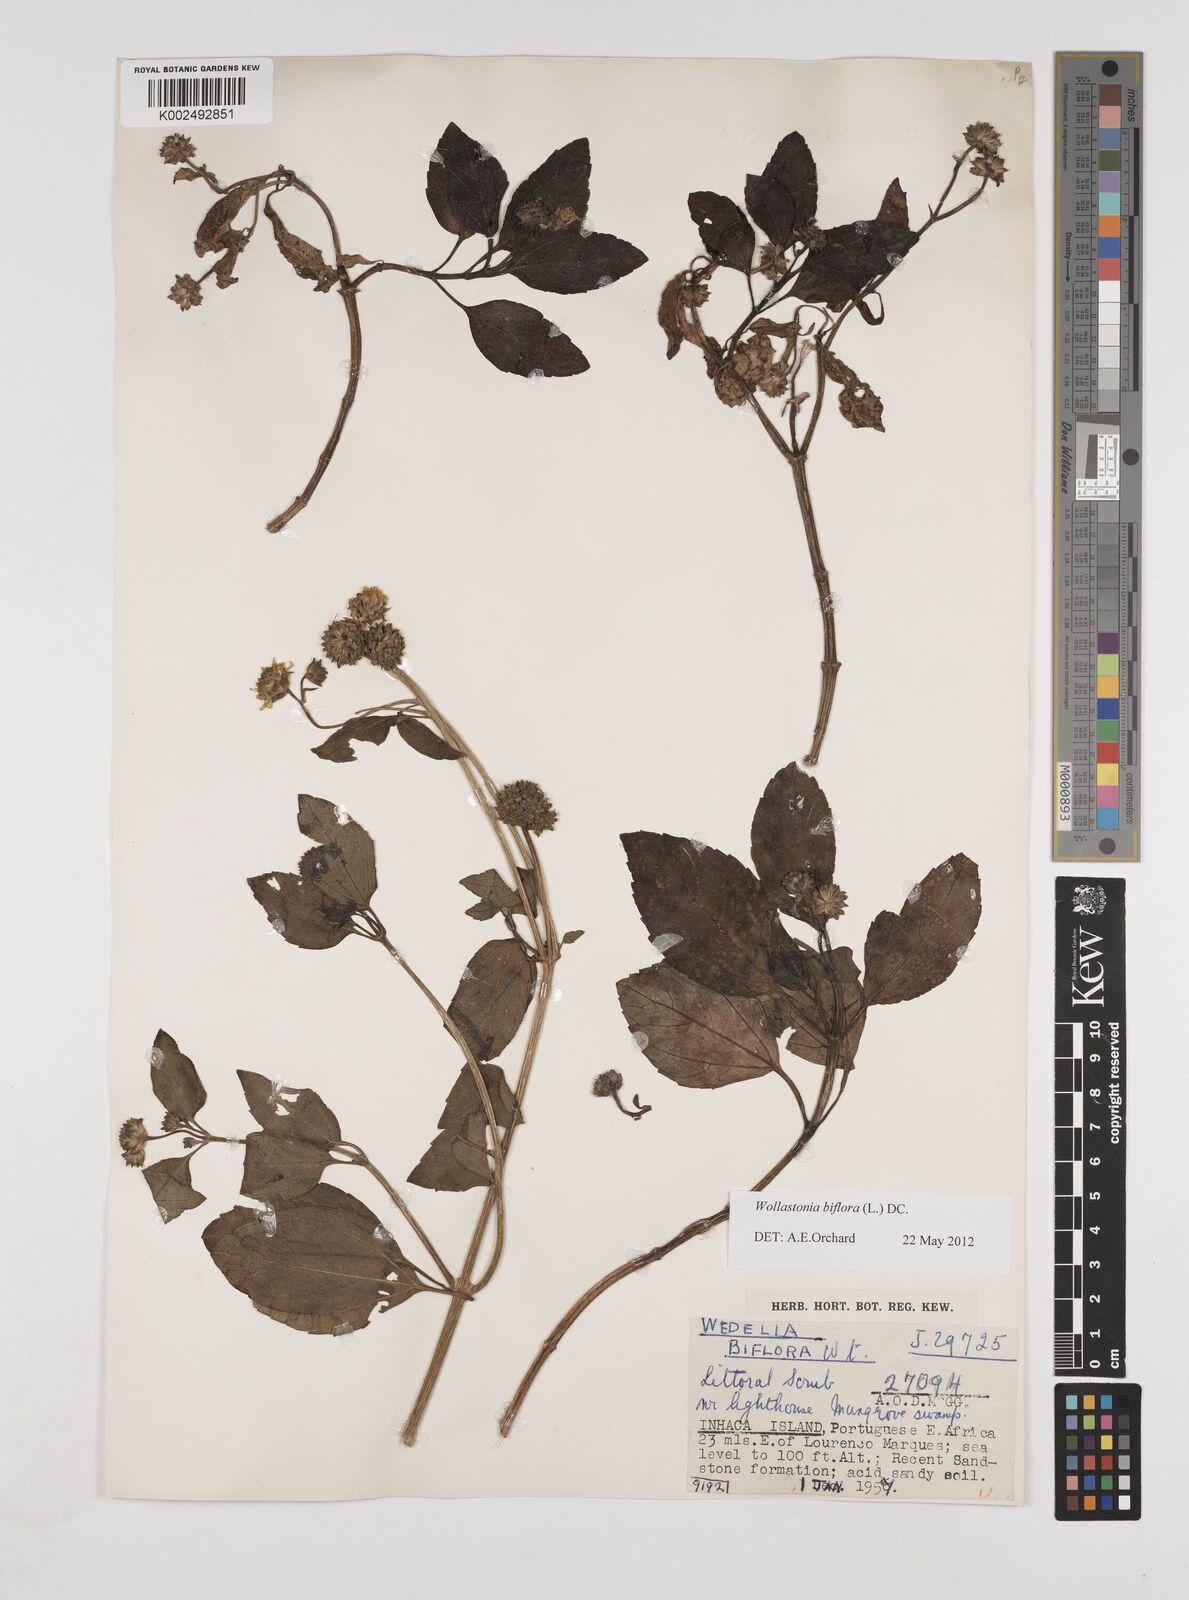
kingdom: Plantae
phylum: Tracheophyta
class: Magnoliopsida
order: Asterales
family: Asteraceae
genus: Wollastonia
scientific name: Wollastonia biflora
